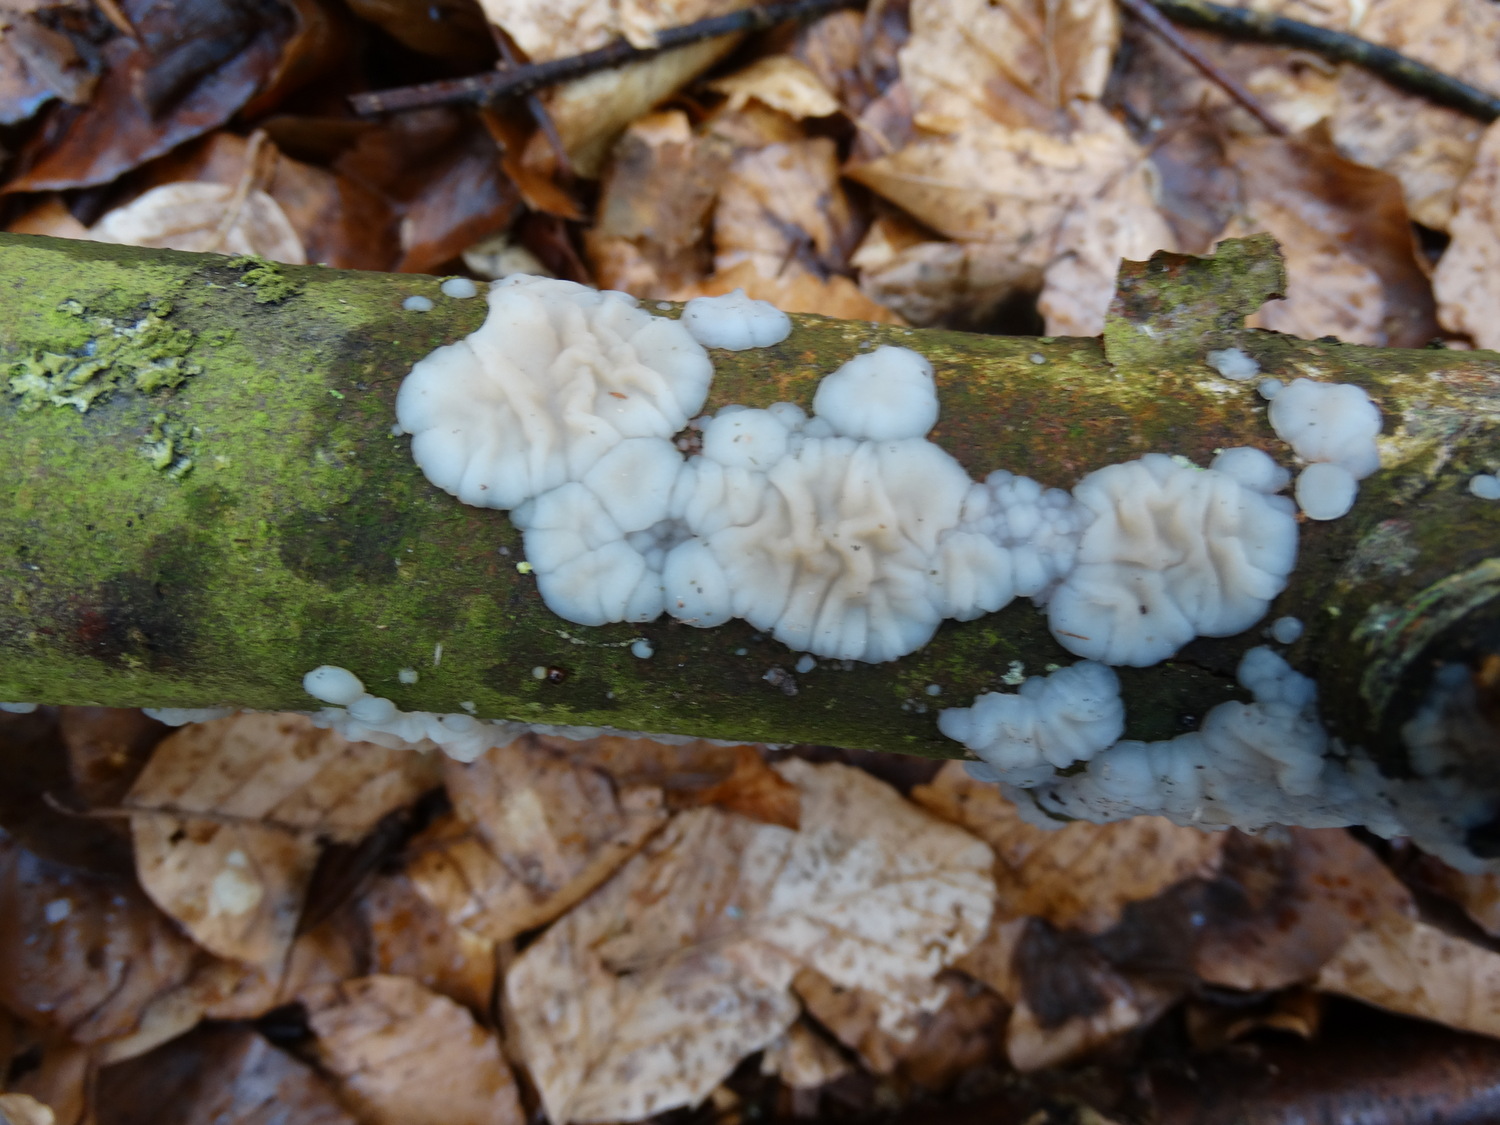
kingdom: Fungi
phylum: Basidiomycota
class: Agaricomycetes
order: Auriculariales
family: Auriculariaceae
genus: Exidia
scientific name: Exidia thuretiana
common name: hvidlig bævretop
